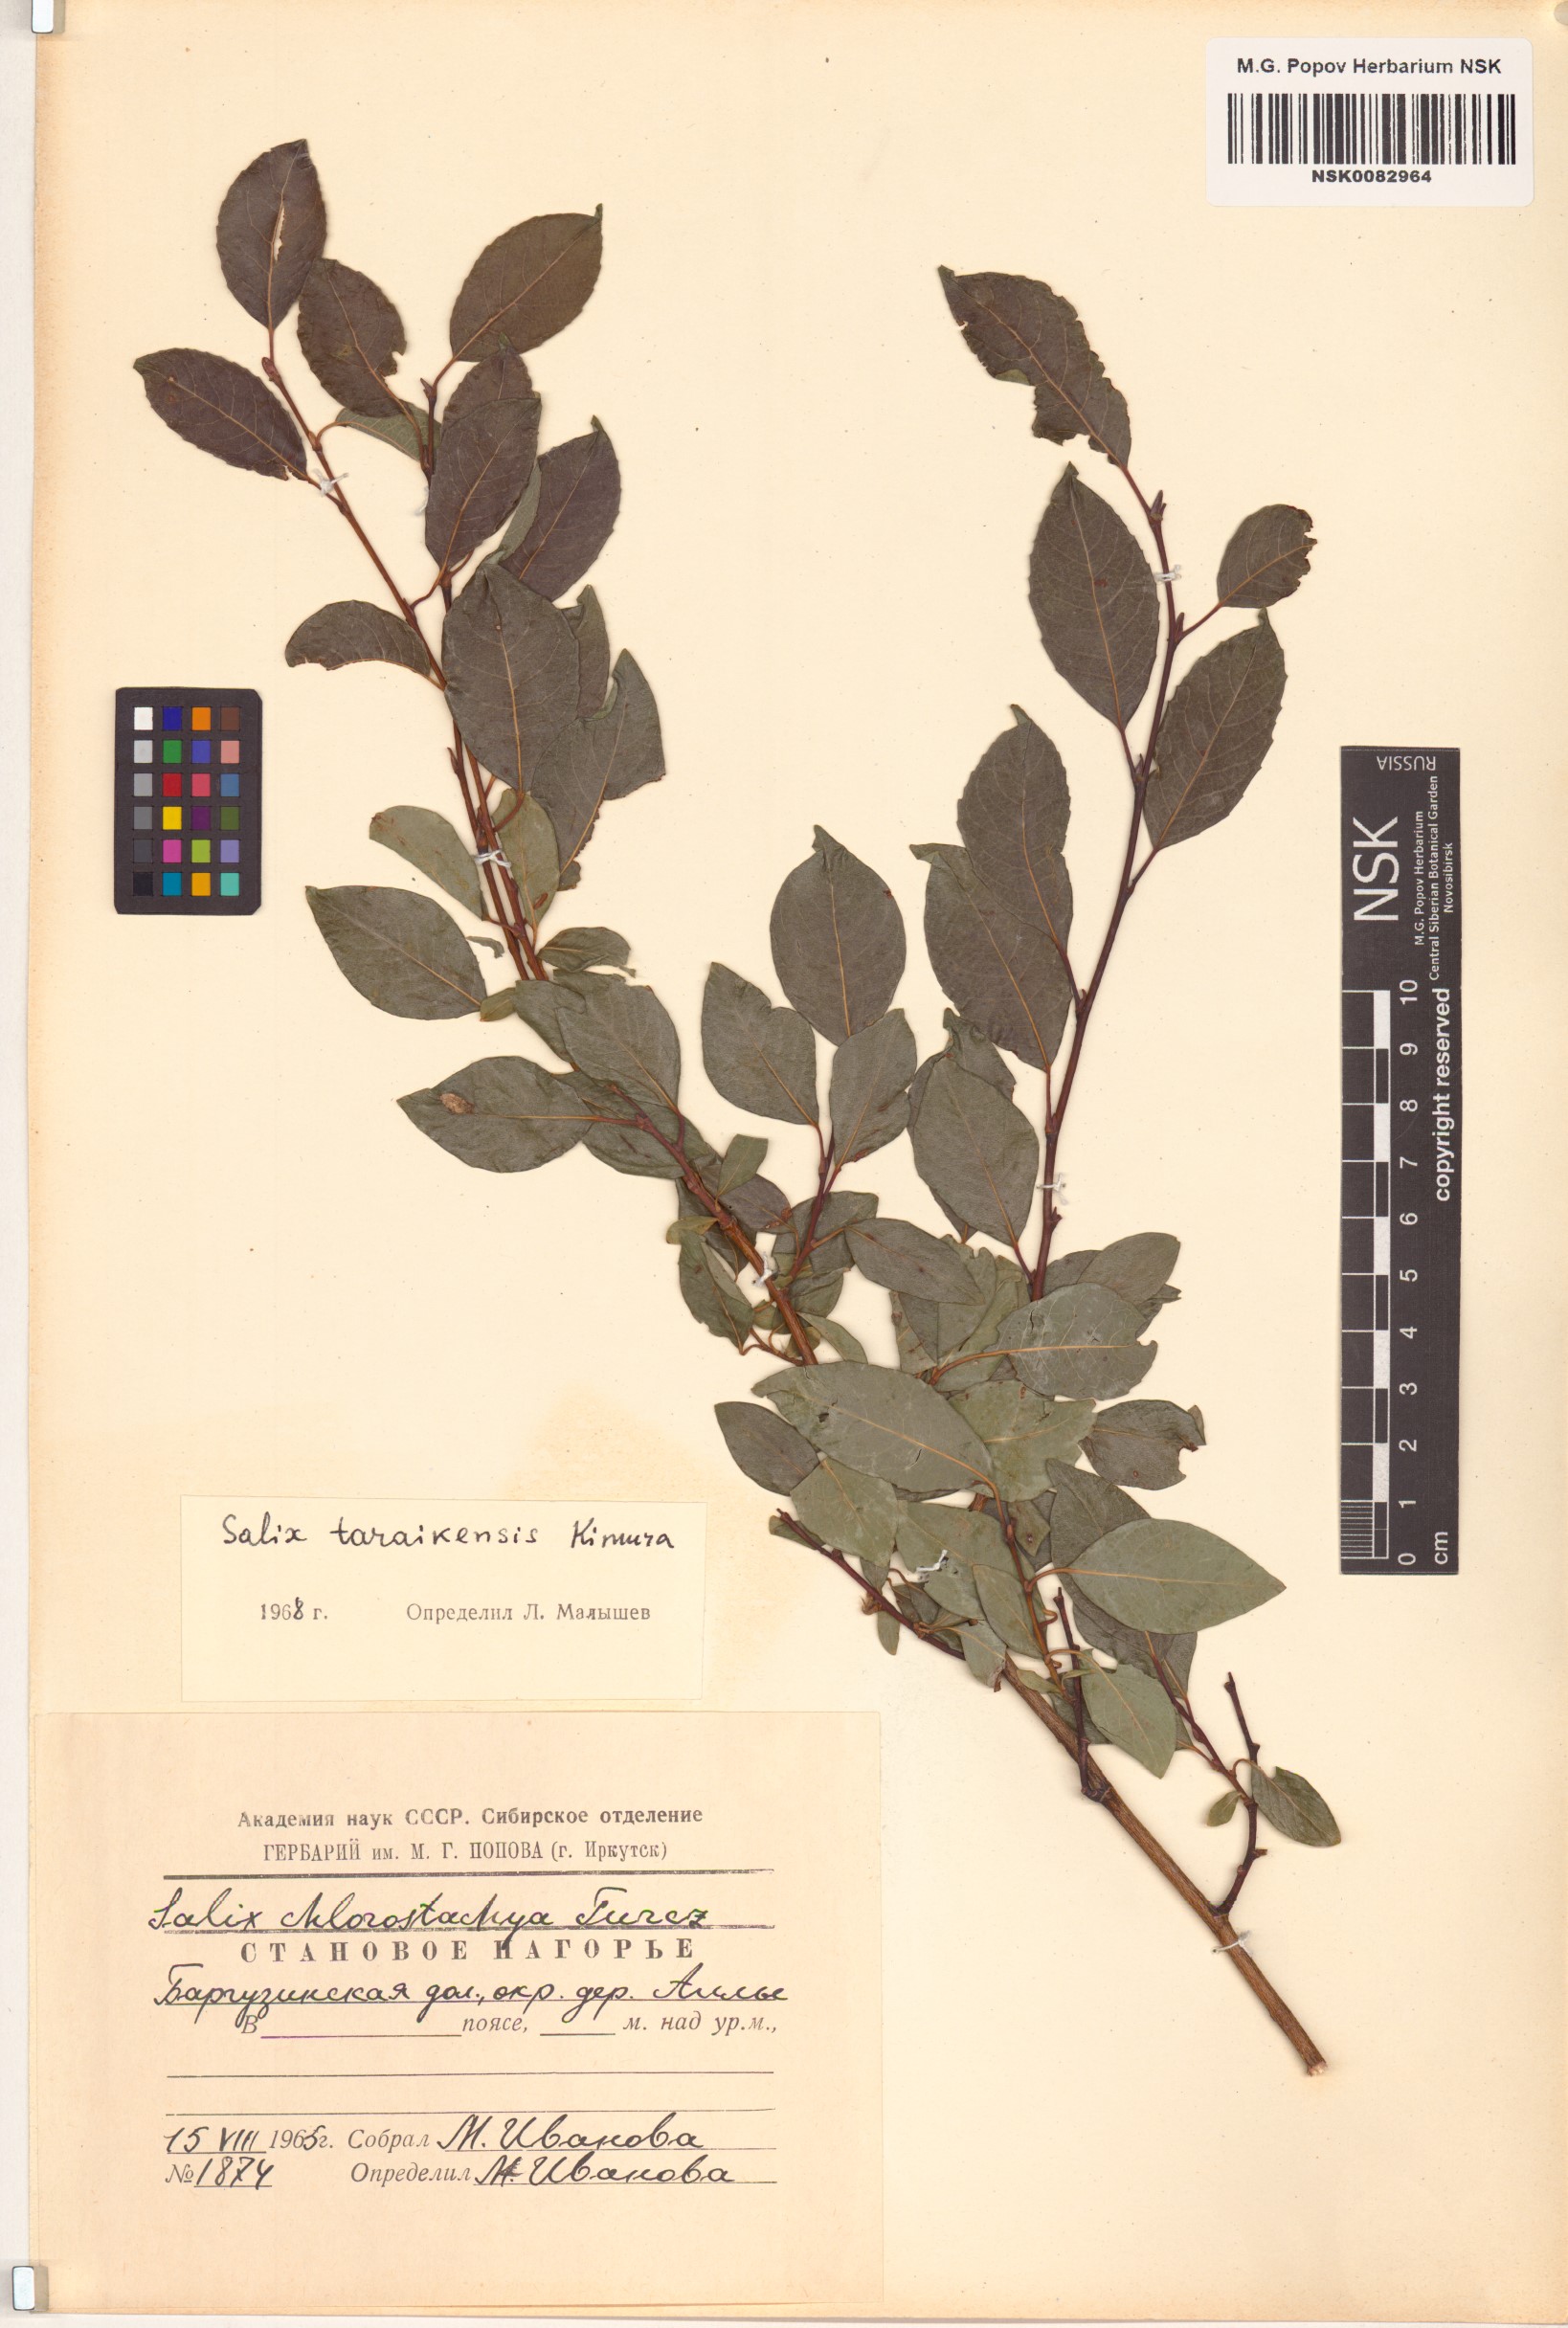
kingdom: Plantae
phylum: Tracheophyta
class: Magnoliopsida
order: Malpighiales
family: Salicaceae
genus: Salix
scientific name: Salix taraikensis
